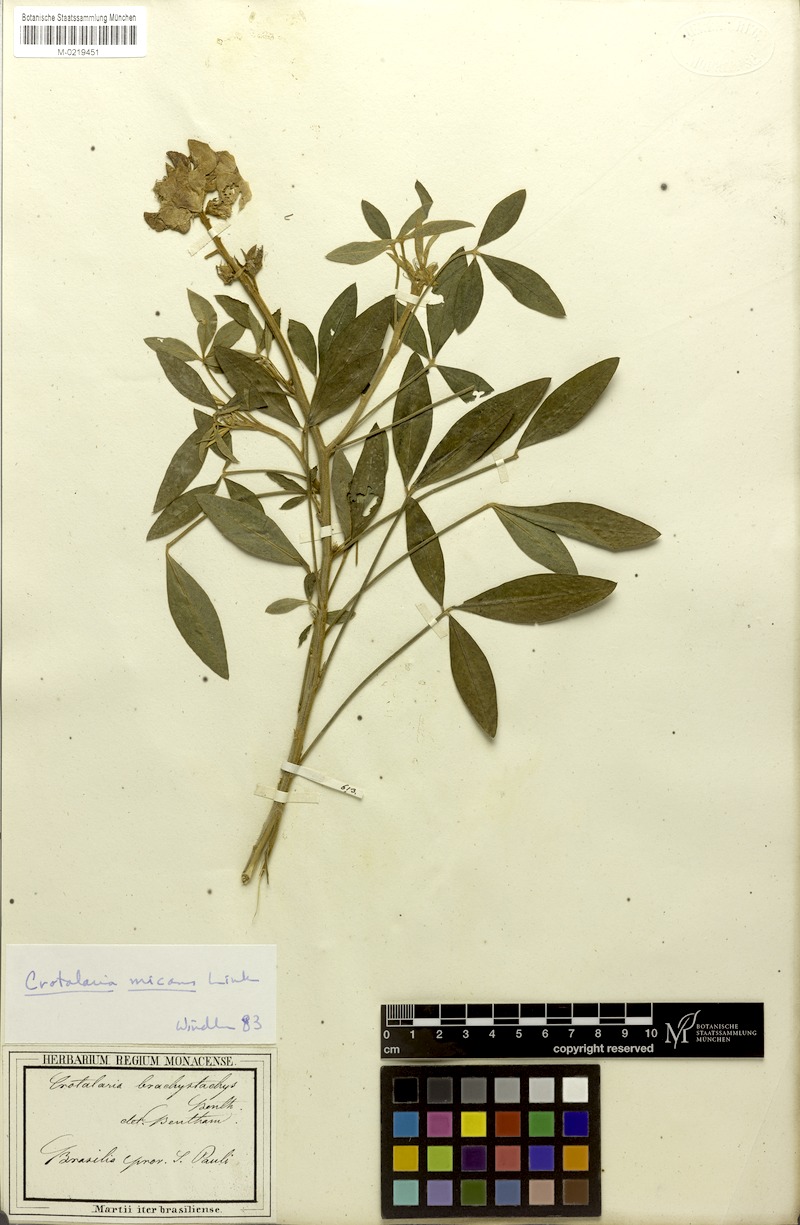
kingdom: Plantae
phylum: Tracheophyta
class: Magnoliopsida
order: Fabales
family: Fabaceae
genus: Crotalaria
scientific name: Crotalaria micans
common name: Caracas rattlebox
